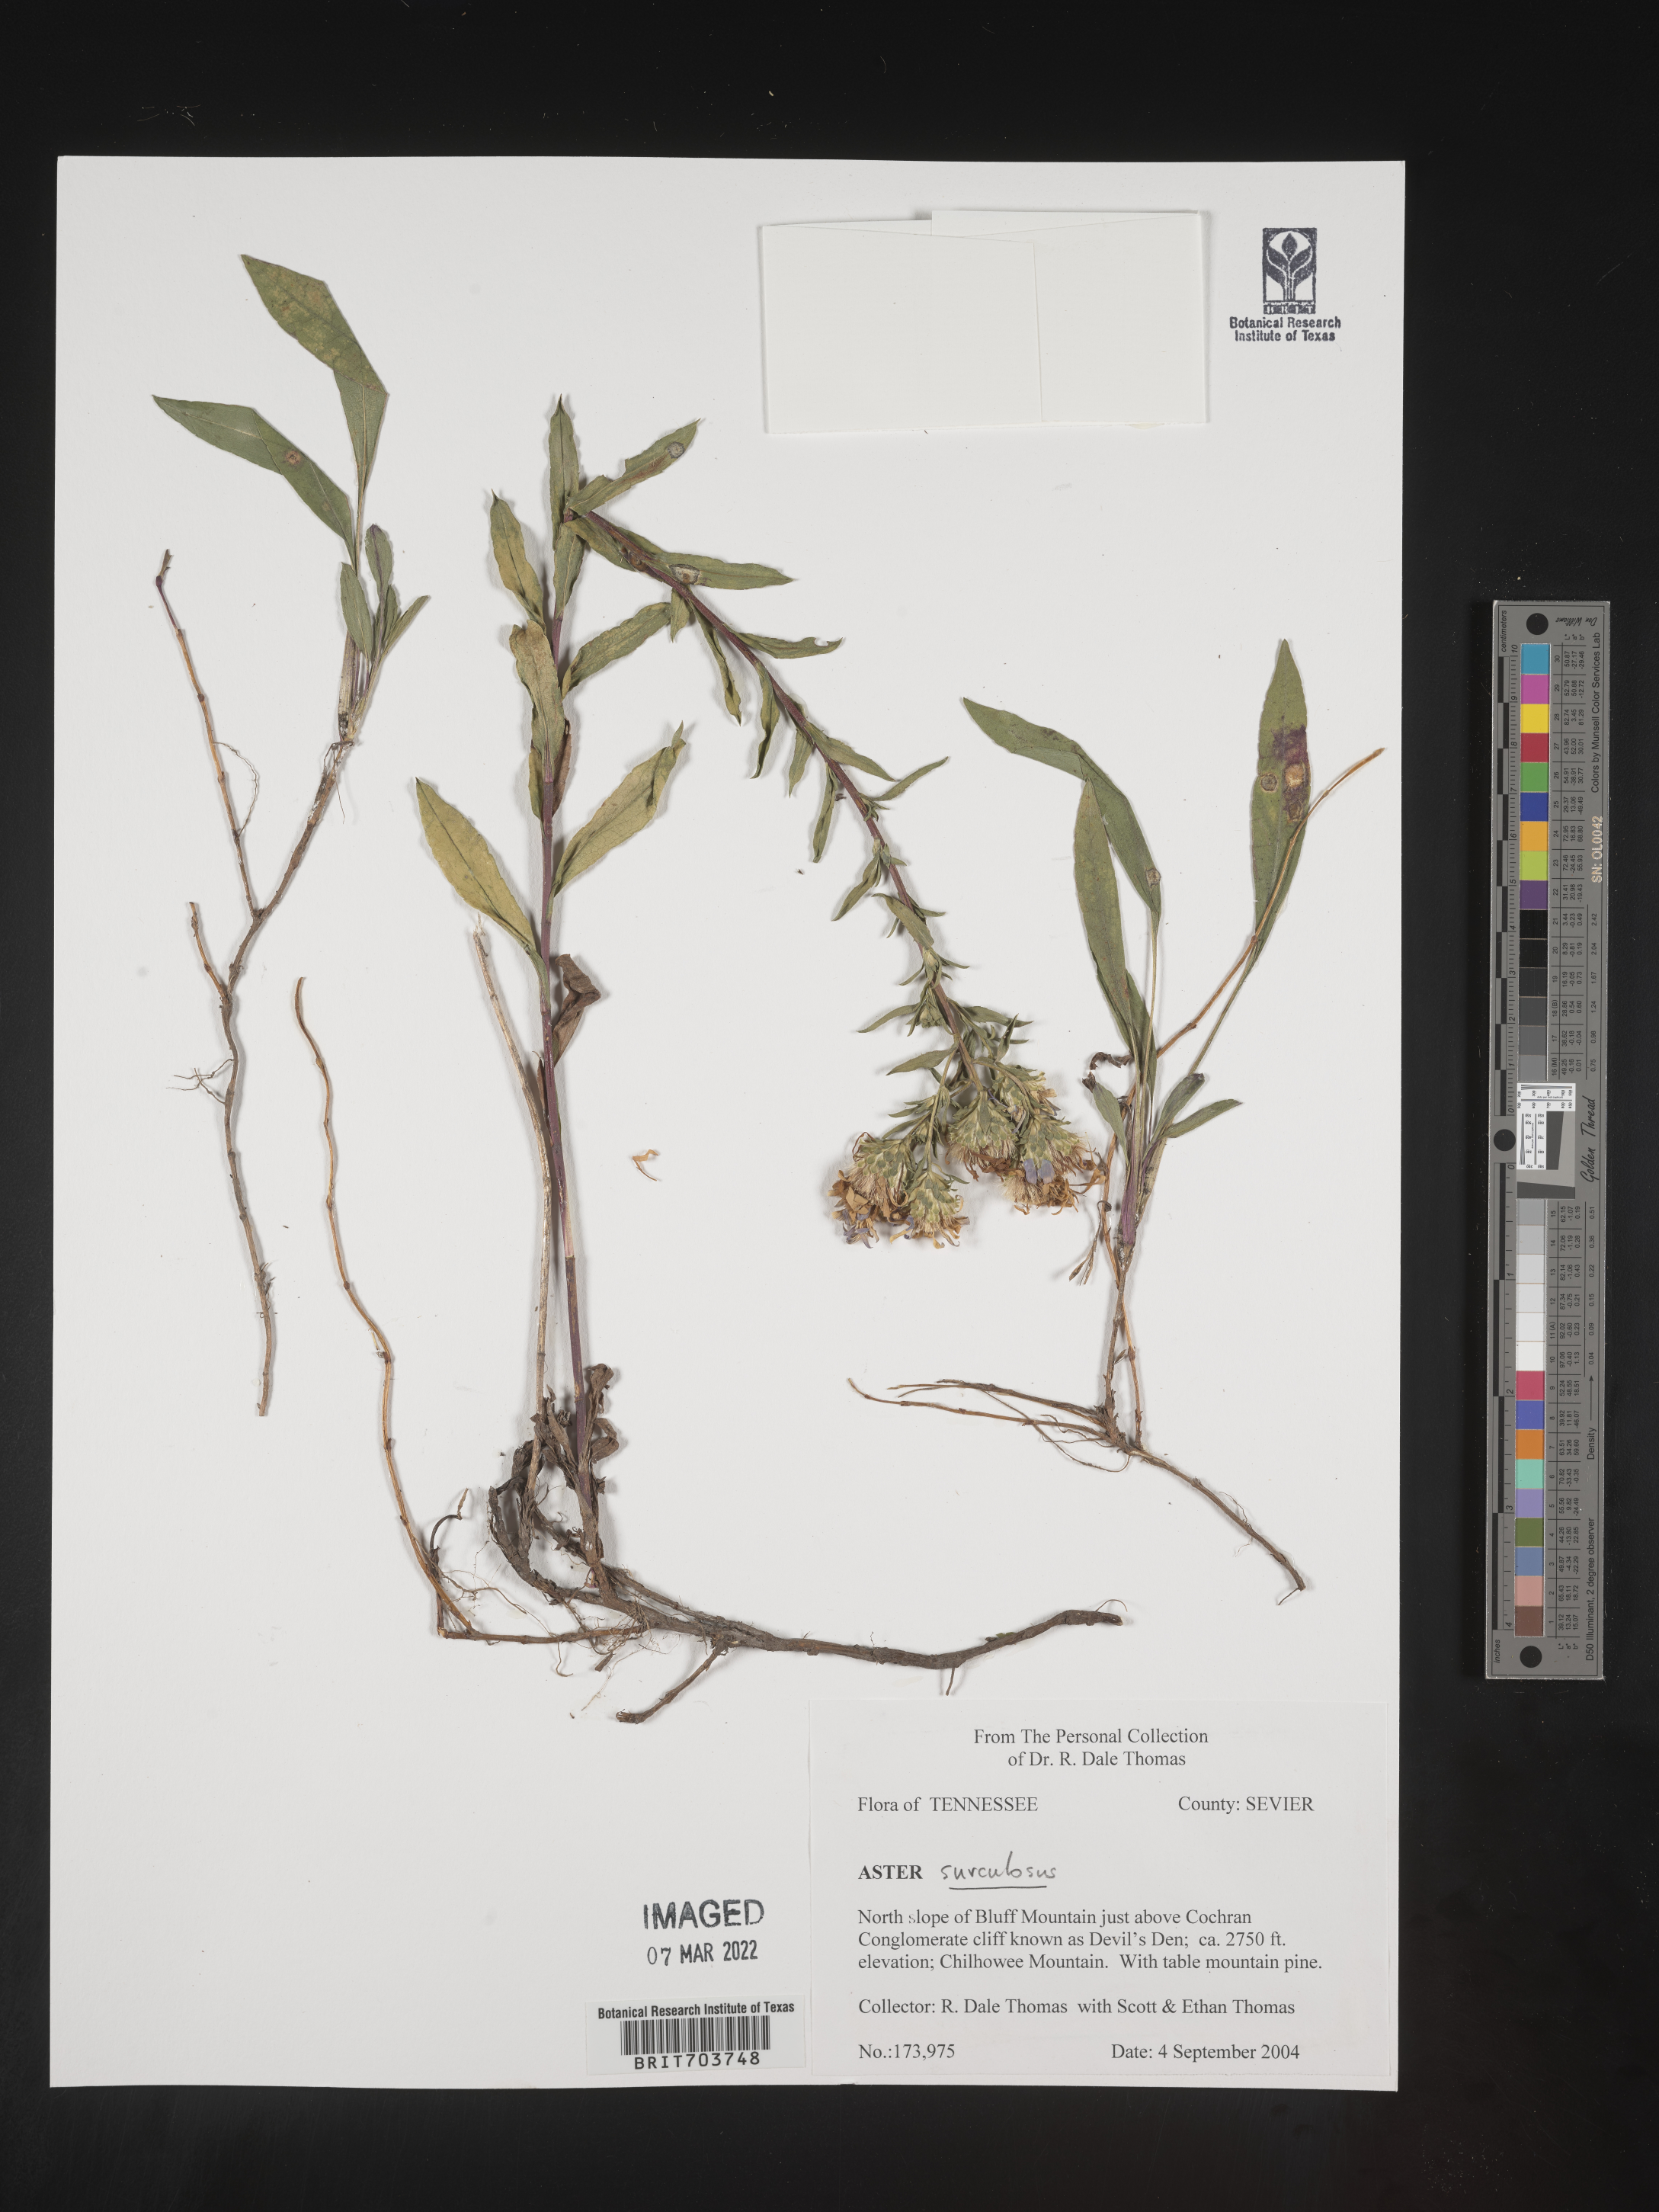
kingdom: Plantae
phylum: Tracheophyta
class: Magnoliopsida
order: Asterales
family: Asteraceae
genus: Eurybia
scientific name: Eurybia surculosa
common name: Creeping aster
